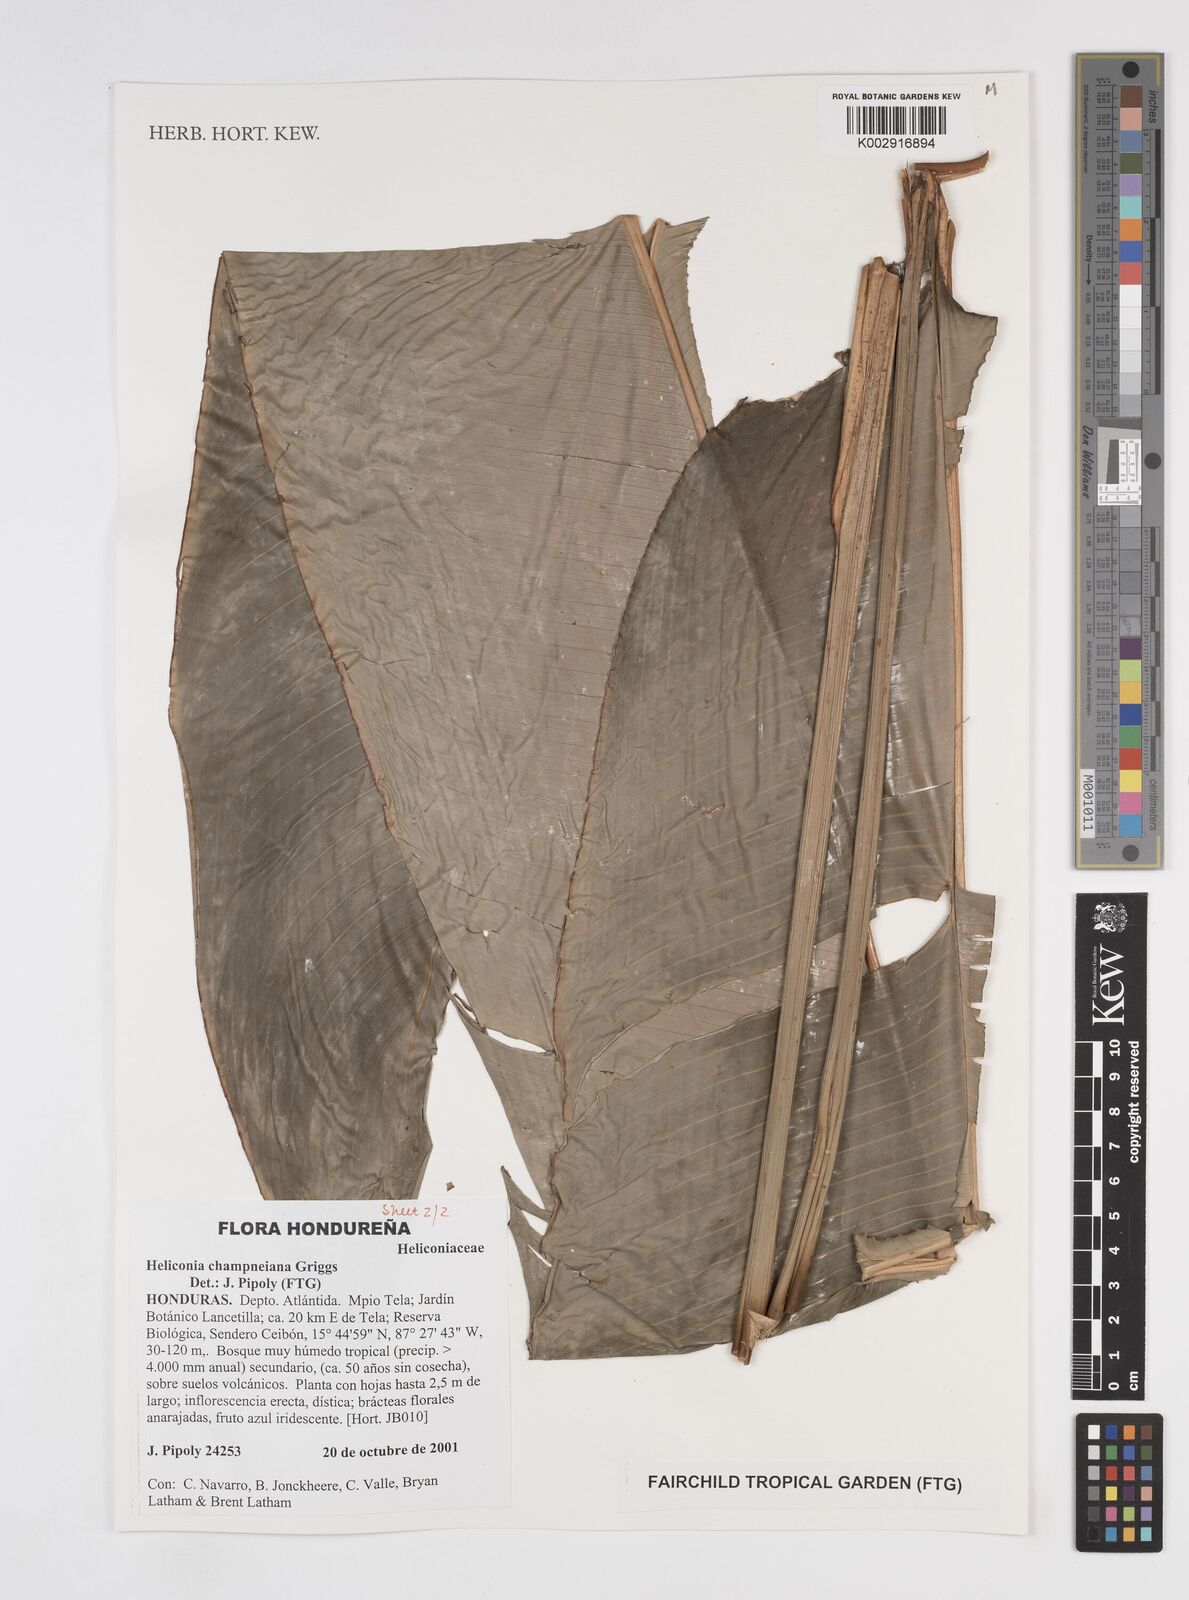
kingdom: Plantae
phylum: Tracheophyta
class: Liliopsida
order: Zingiberales
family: Heliconiaceae
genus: Heliconia
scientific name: Heliconia bourgaeana
